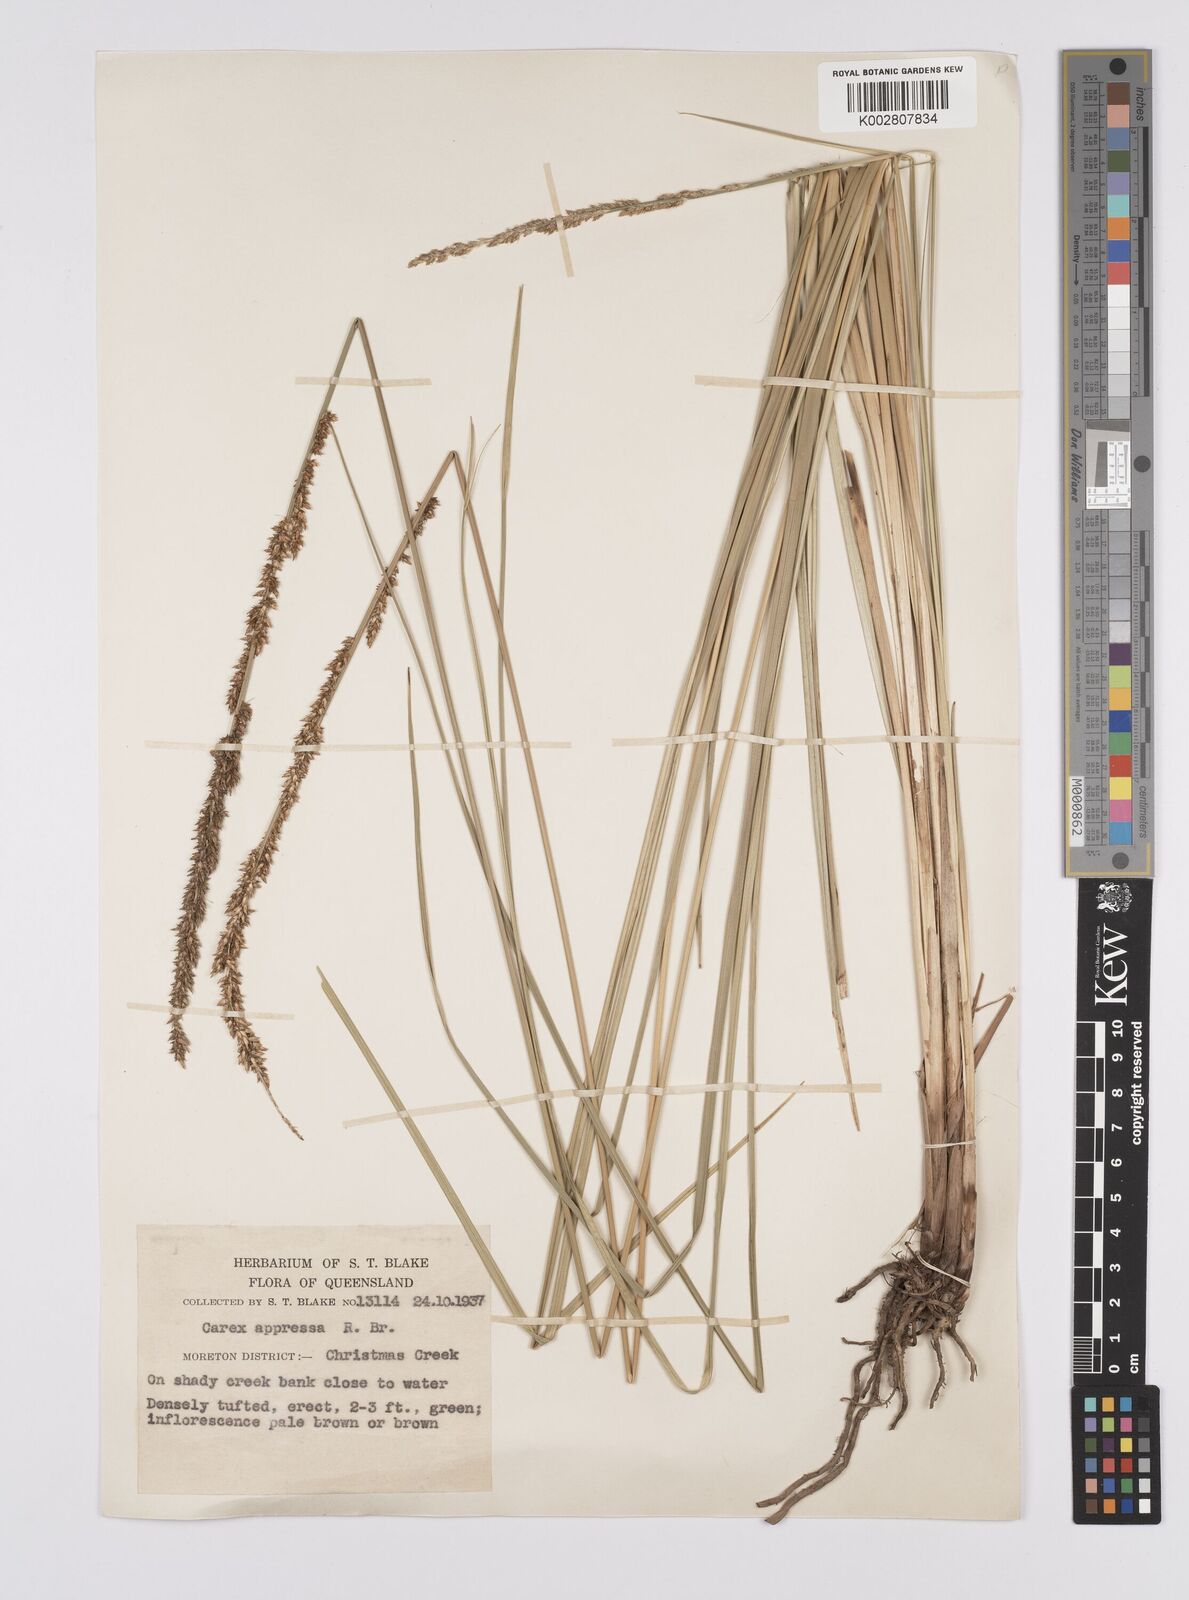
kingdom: Plantae
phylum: Tracheophyta
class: Liliopsida
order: Poales
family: Cyperaceae
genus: Carex
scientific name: Carex appressa
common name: Tussock sedge
